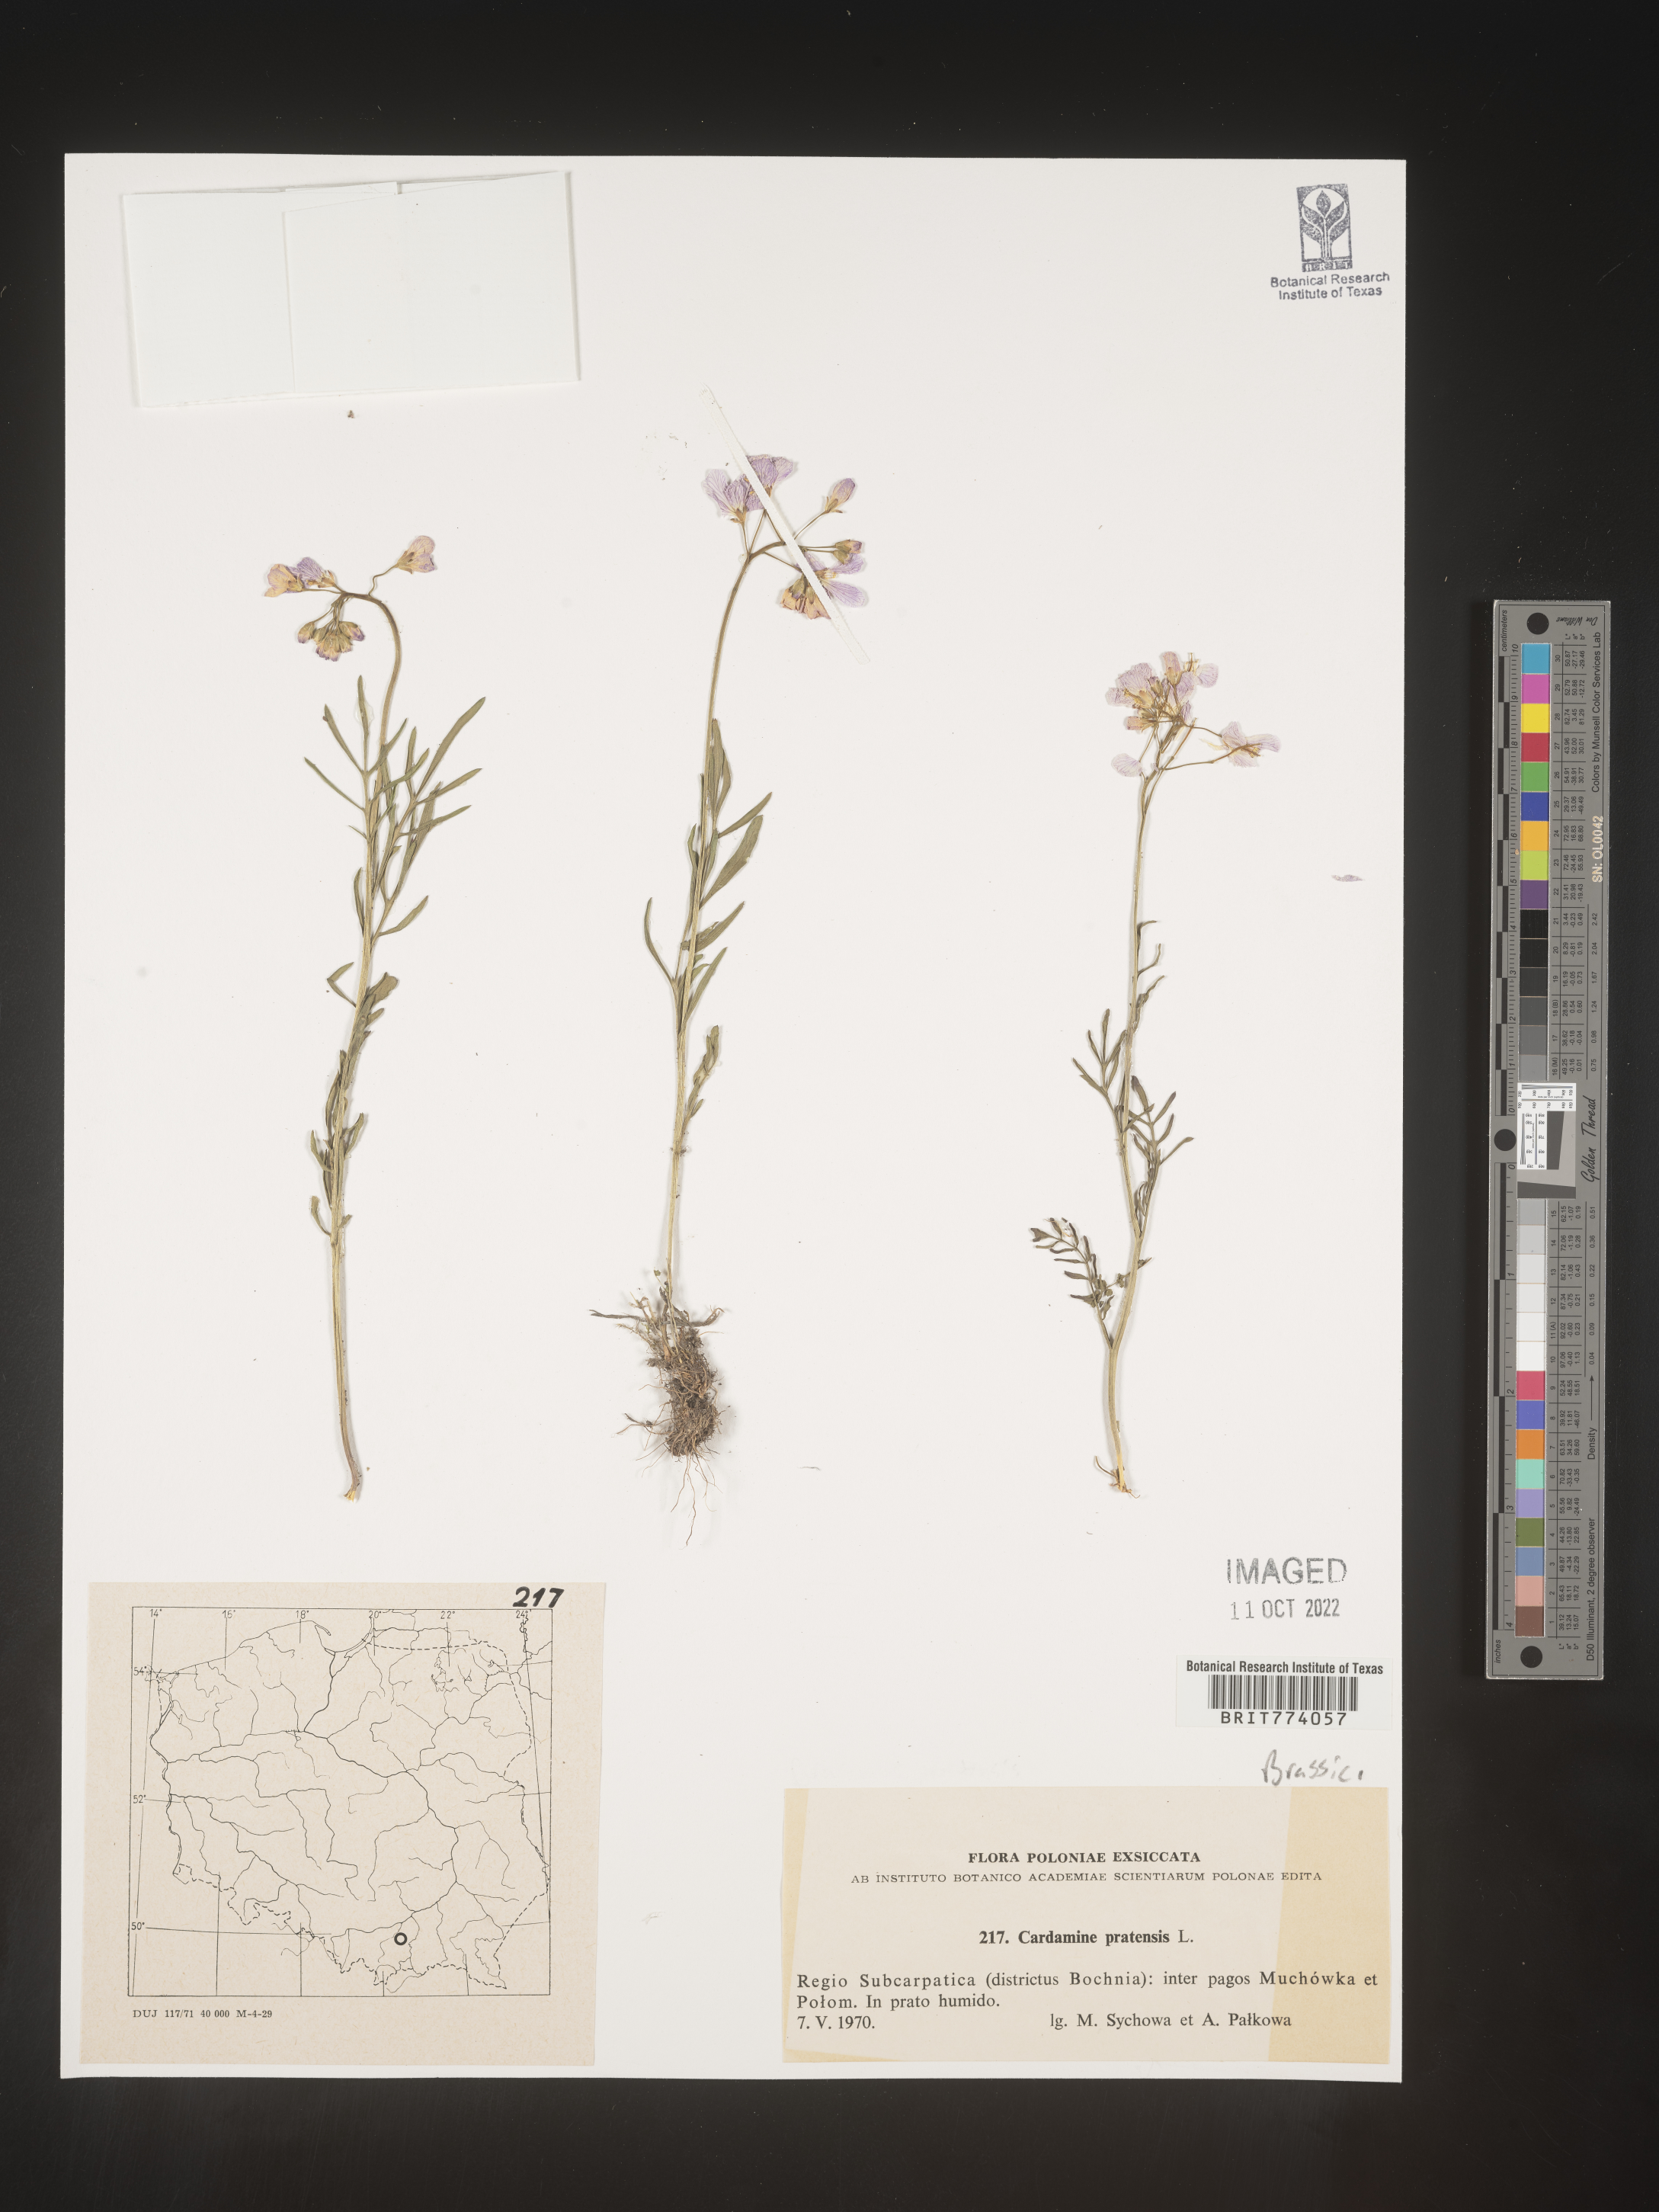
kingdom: Plantae
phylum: Tracheophyta
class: Magnoliopsida
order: Brassicales
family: Brassicaceae
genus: Cardamine
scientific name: Cardamine pratensis
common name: Cuckoo flower
